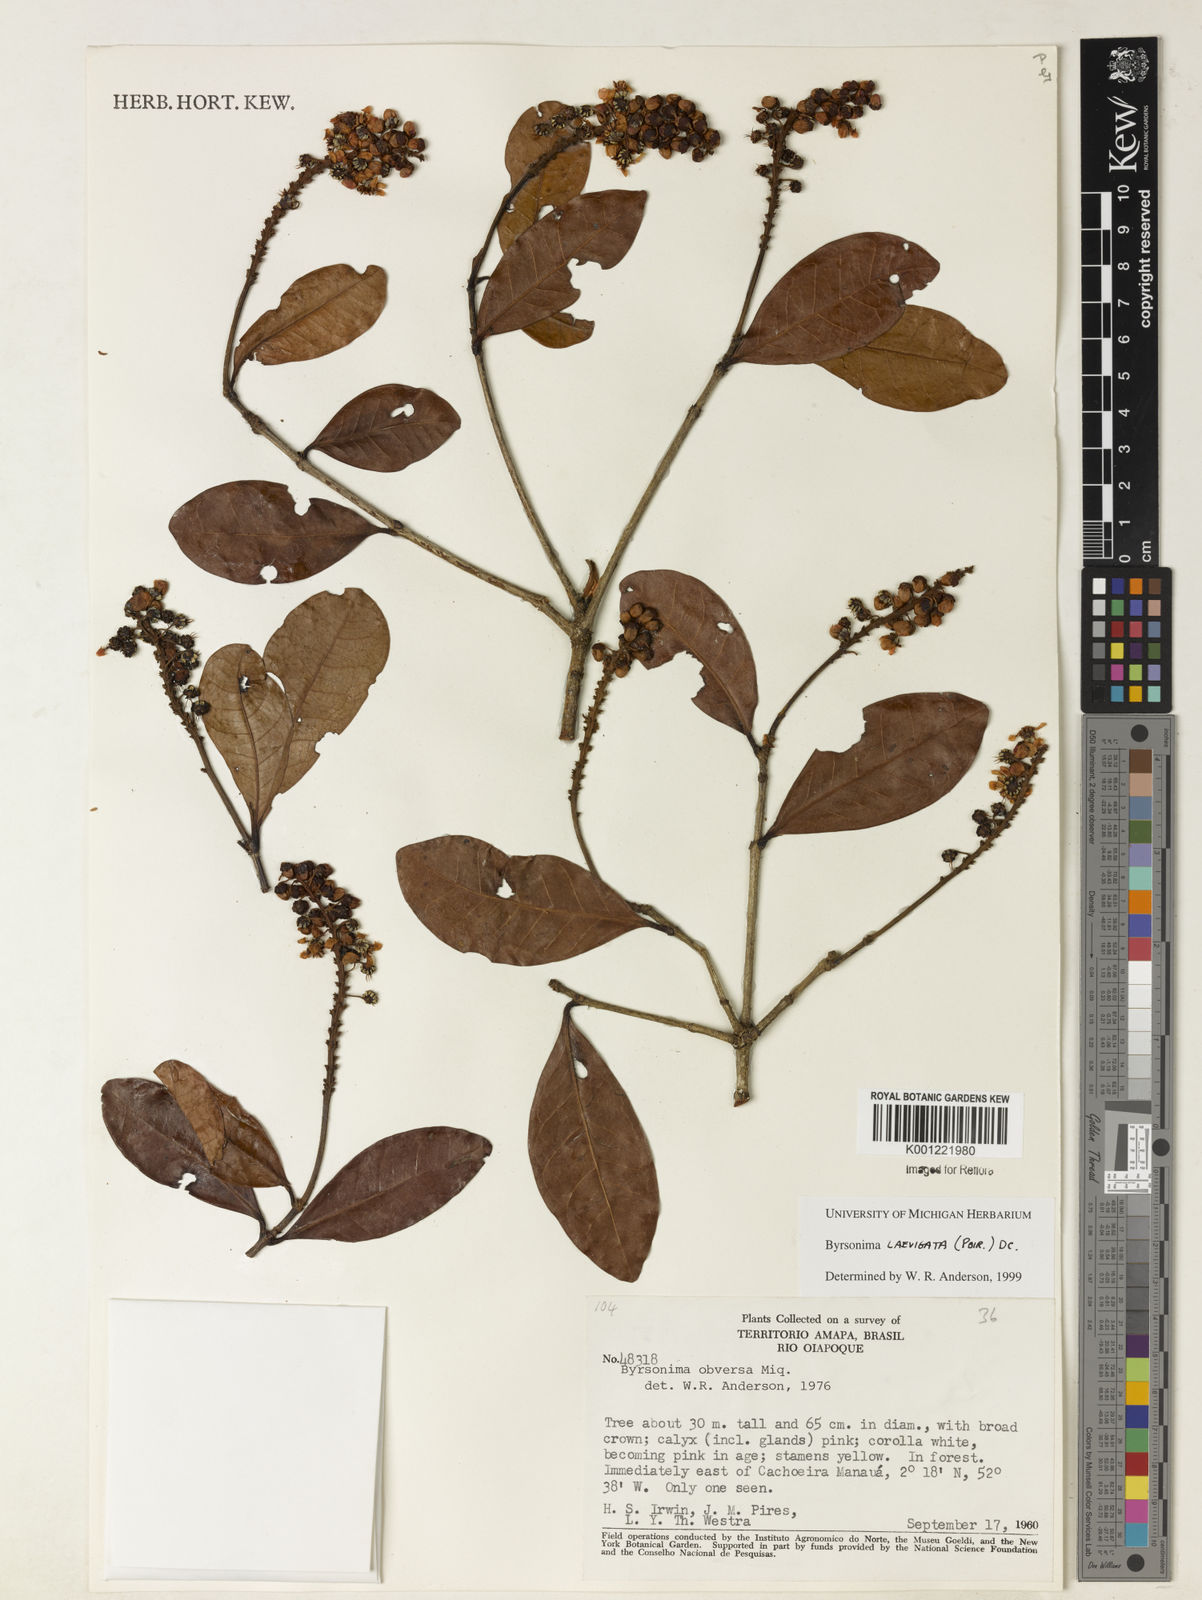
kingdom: Plantae
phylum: Tracheophyta
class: Magnoliopsida
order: Malpighiales
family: Malpighiaceae
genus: Byrsonima
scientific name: Byrsonima laevigata
